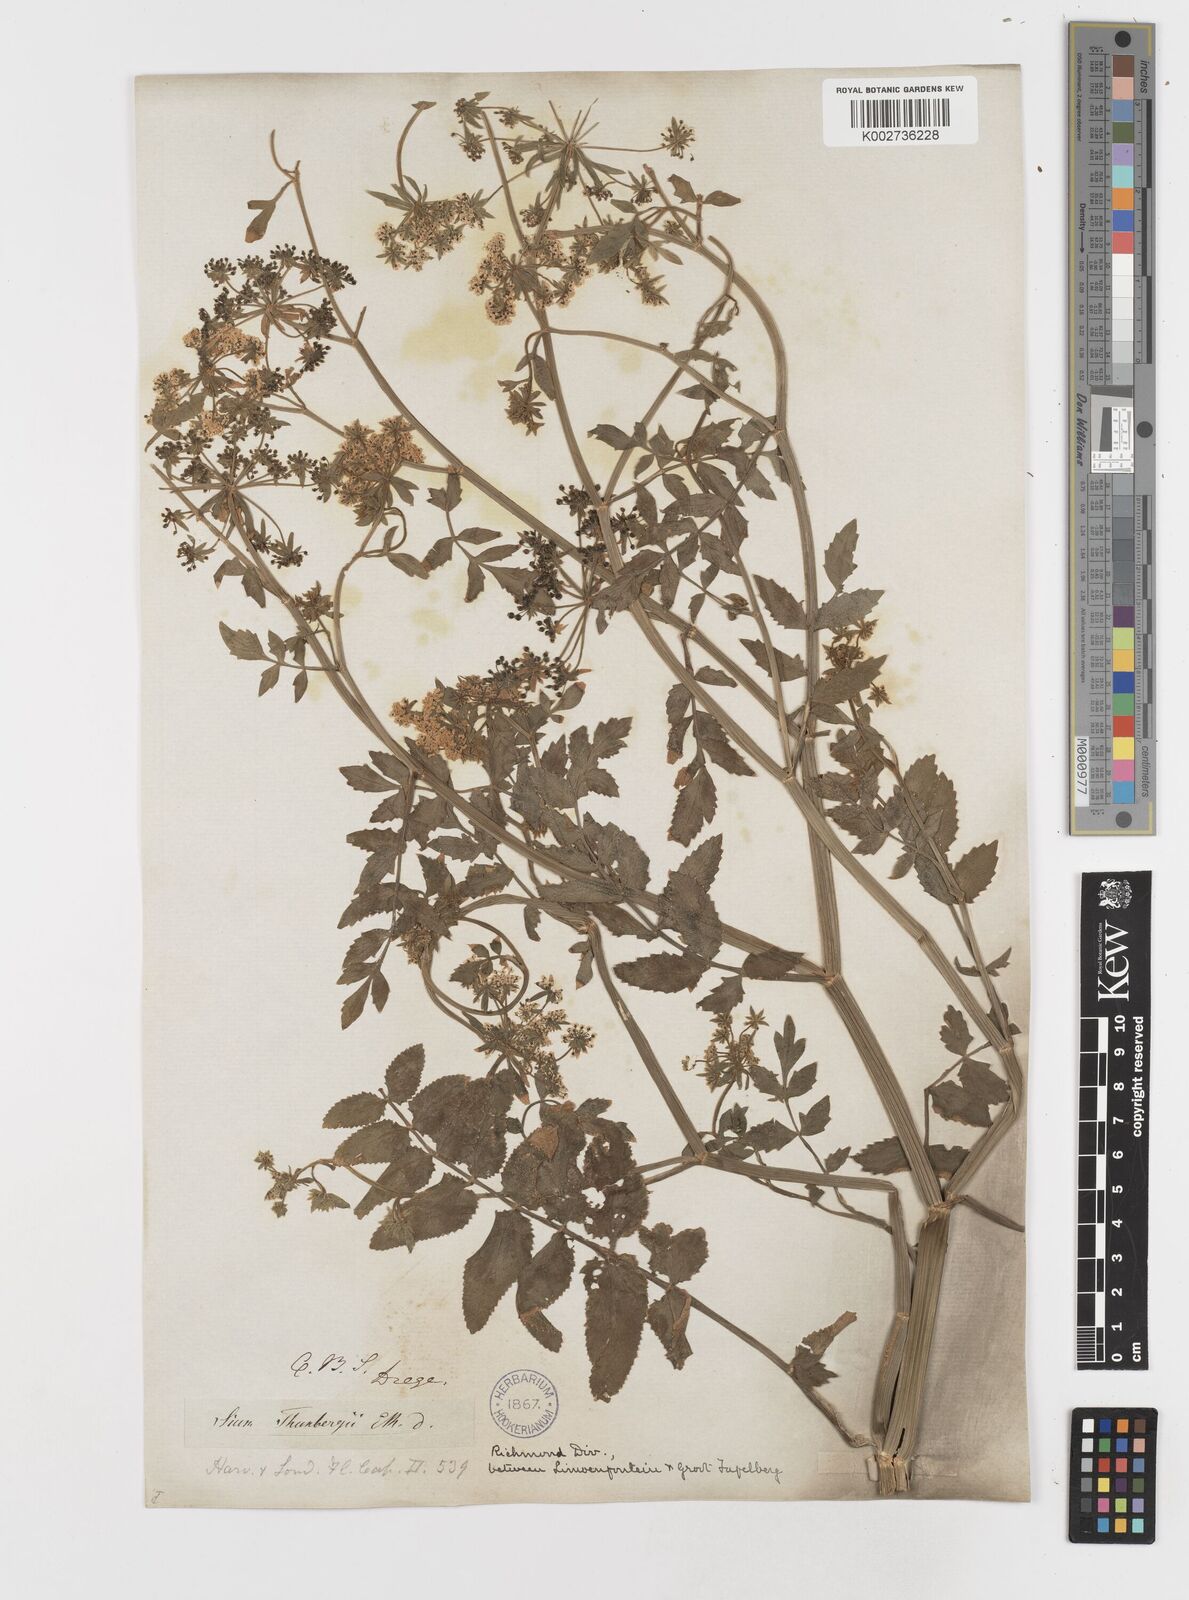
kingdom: Plantae
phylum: Tracheophyta
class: Magnoliopsida
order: Apiales
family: Apiaceae
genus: Berula
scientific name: Berula erecta
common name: Lesser water-parsnip
